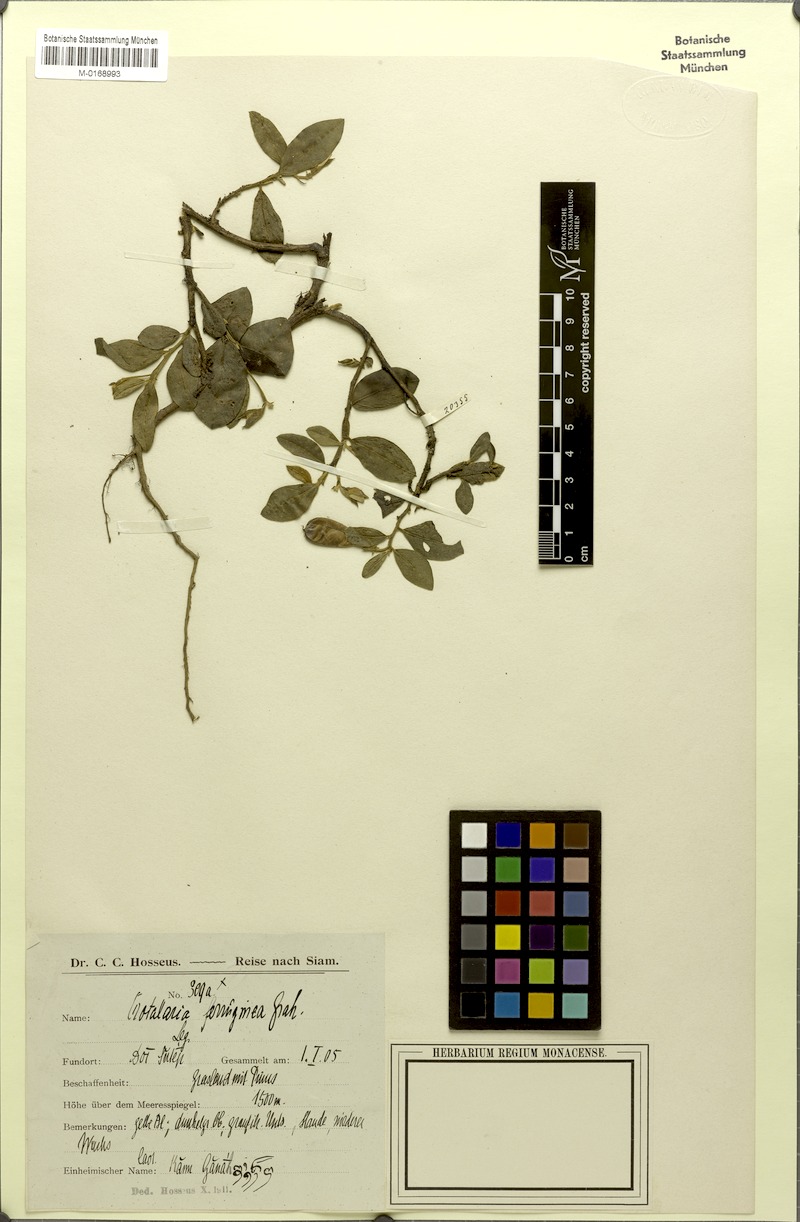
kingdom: Plantae
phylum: Tracheophyta
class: Magnoliopsida
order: Fabales
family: Fabaceae
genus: Crotalaria
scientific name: Crotalaria lejoloba
